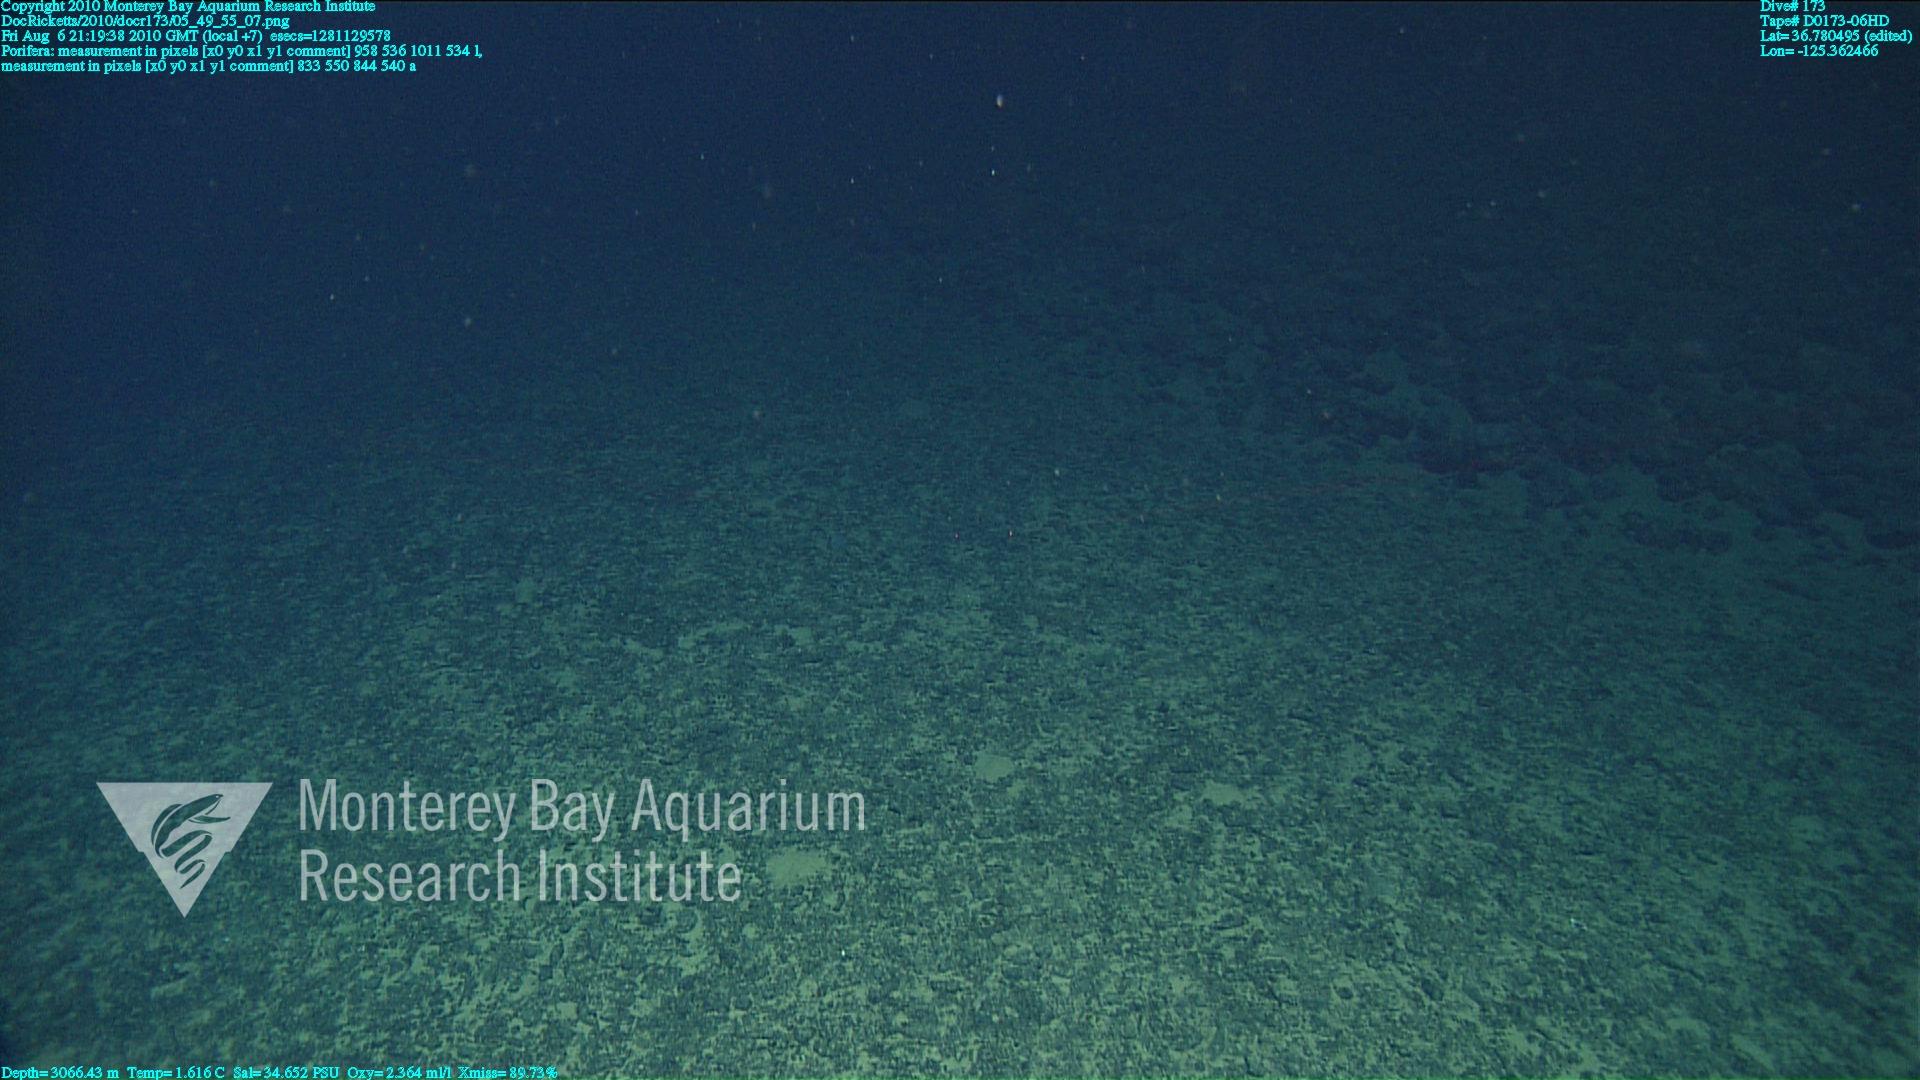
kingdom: Animalia
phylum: Porifera
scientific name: Porifera
